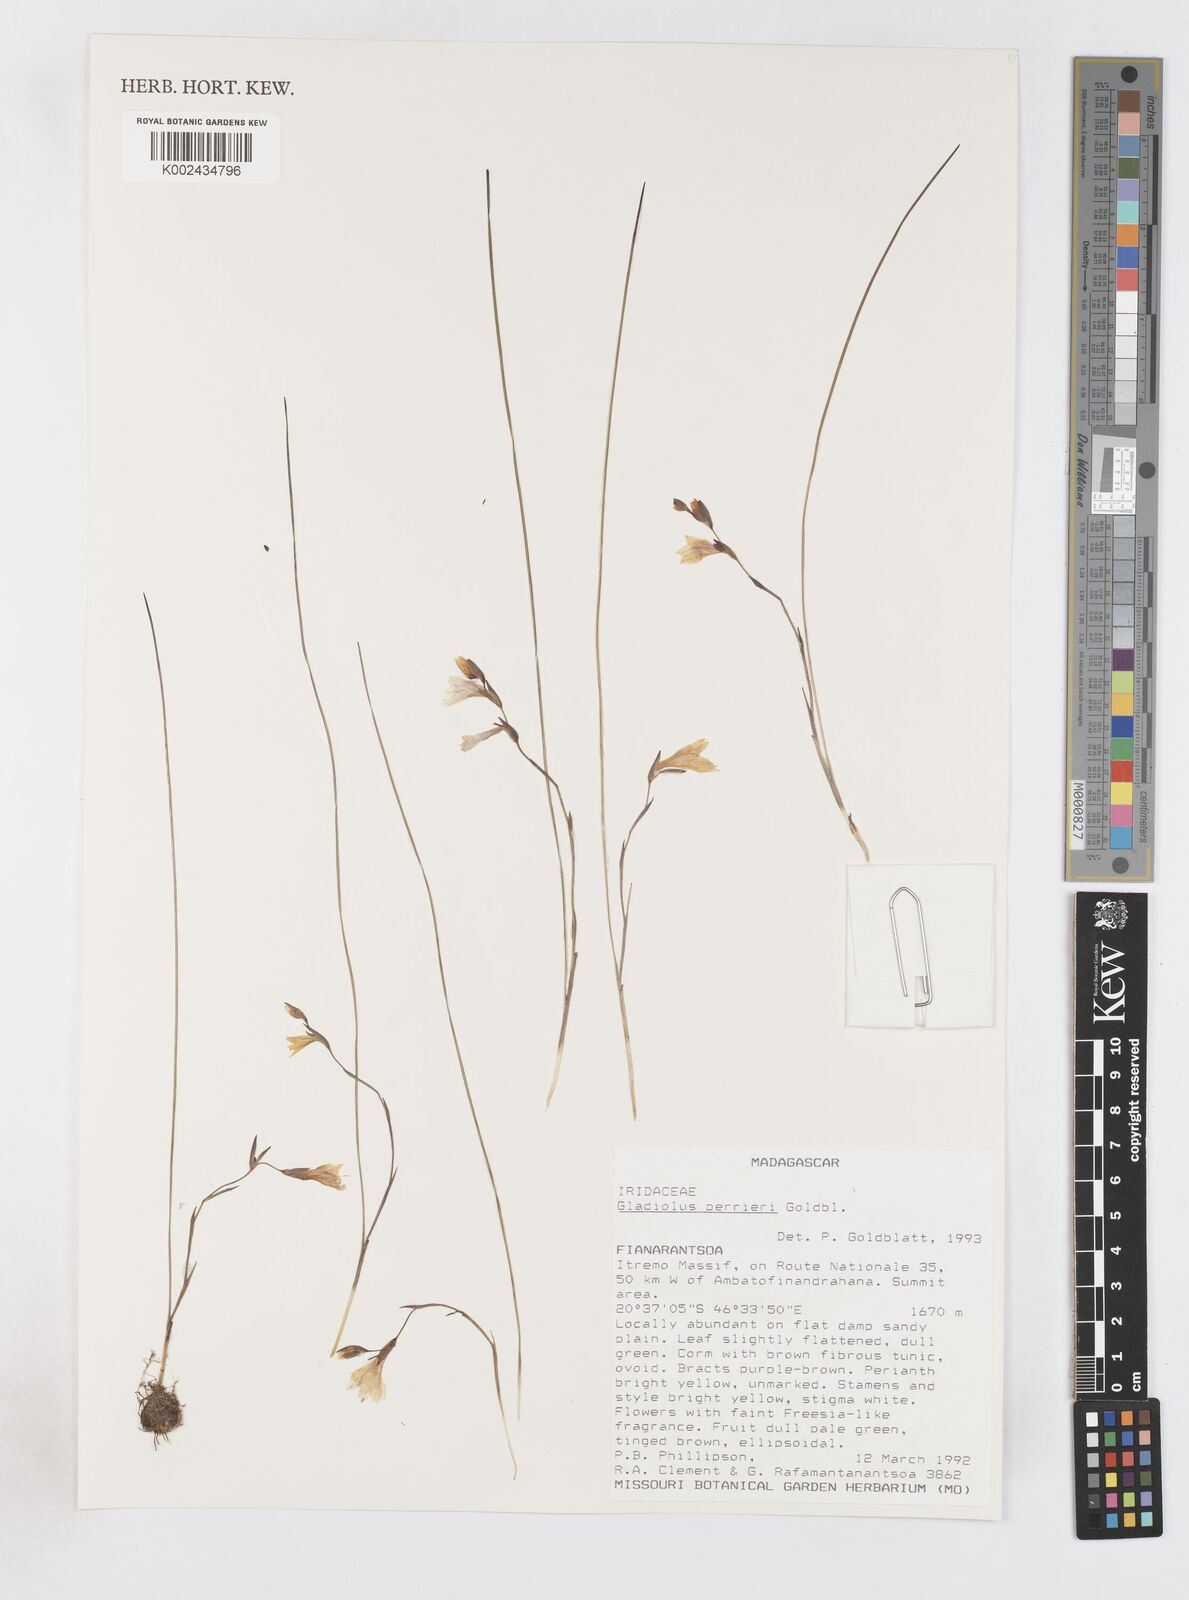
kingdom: Plantae
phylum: Tracheophyta
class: Liliopsida
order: Asparagales
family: Iridaceae
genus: Gladiolus
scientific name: Gladiolus perrieri
